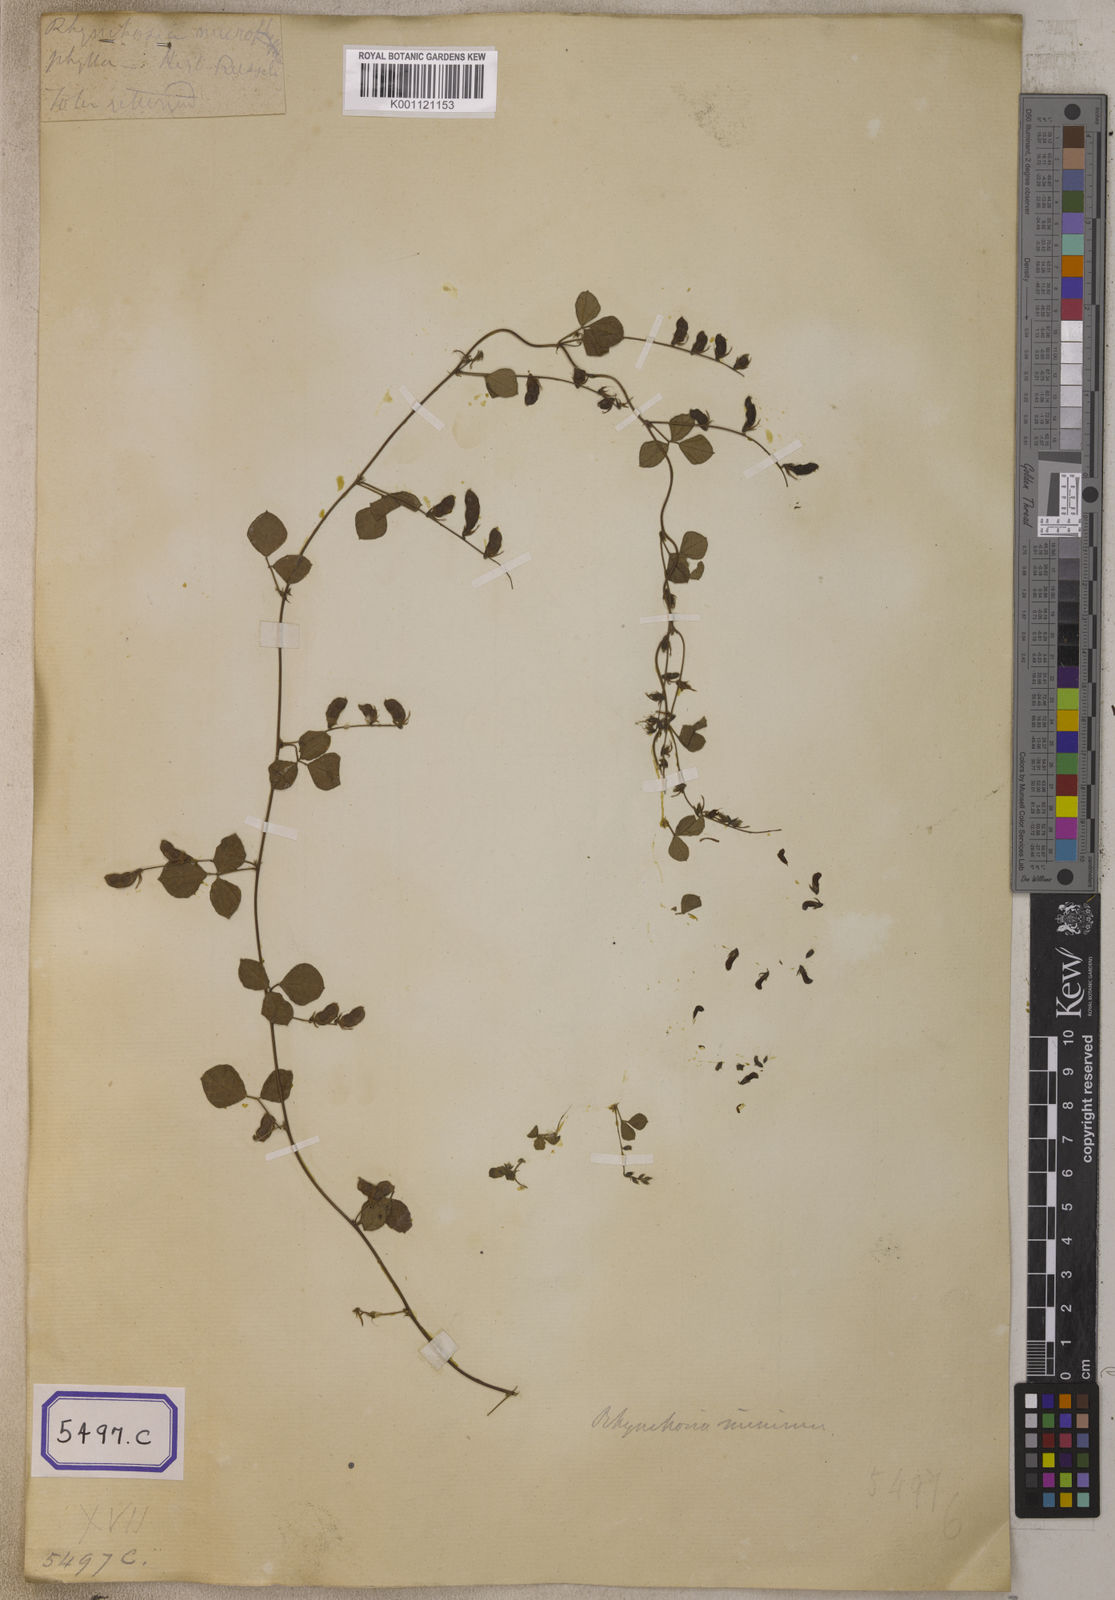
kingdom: Plantae
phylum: Tracheophyta
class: Magnoliopsida
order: Fabales
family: Fabaceae
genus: Rhynchosia
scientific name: Rhynchosia minima
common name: Least snoutbean
